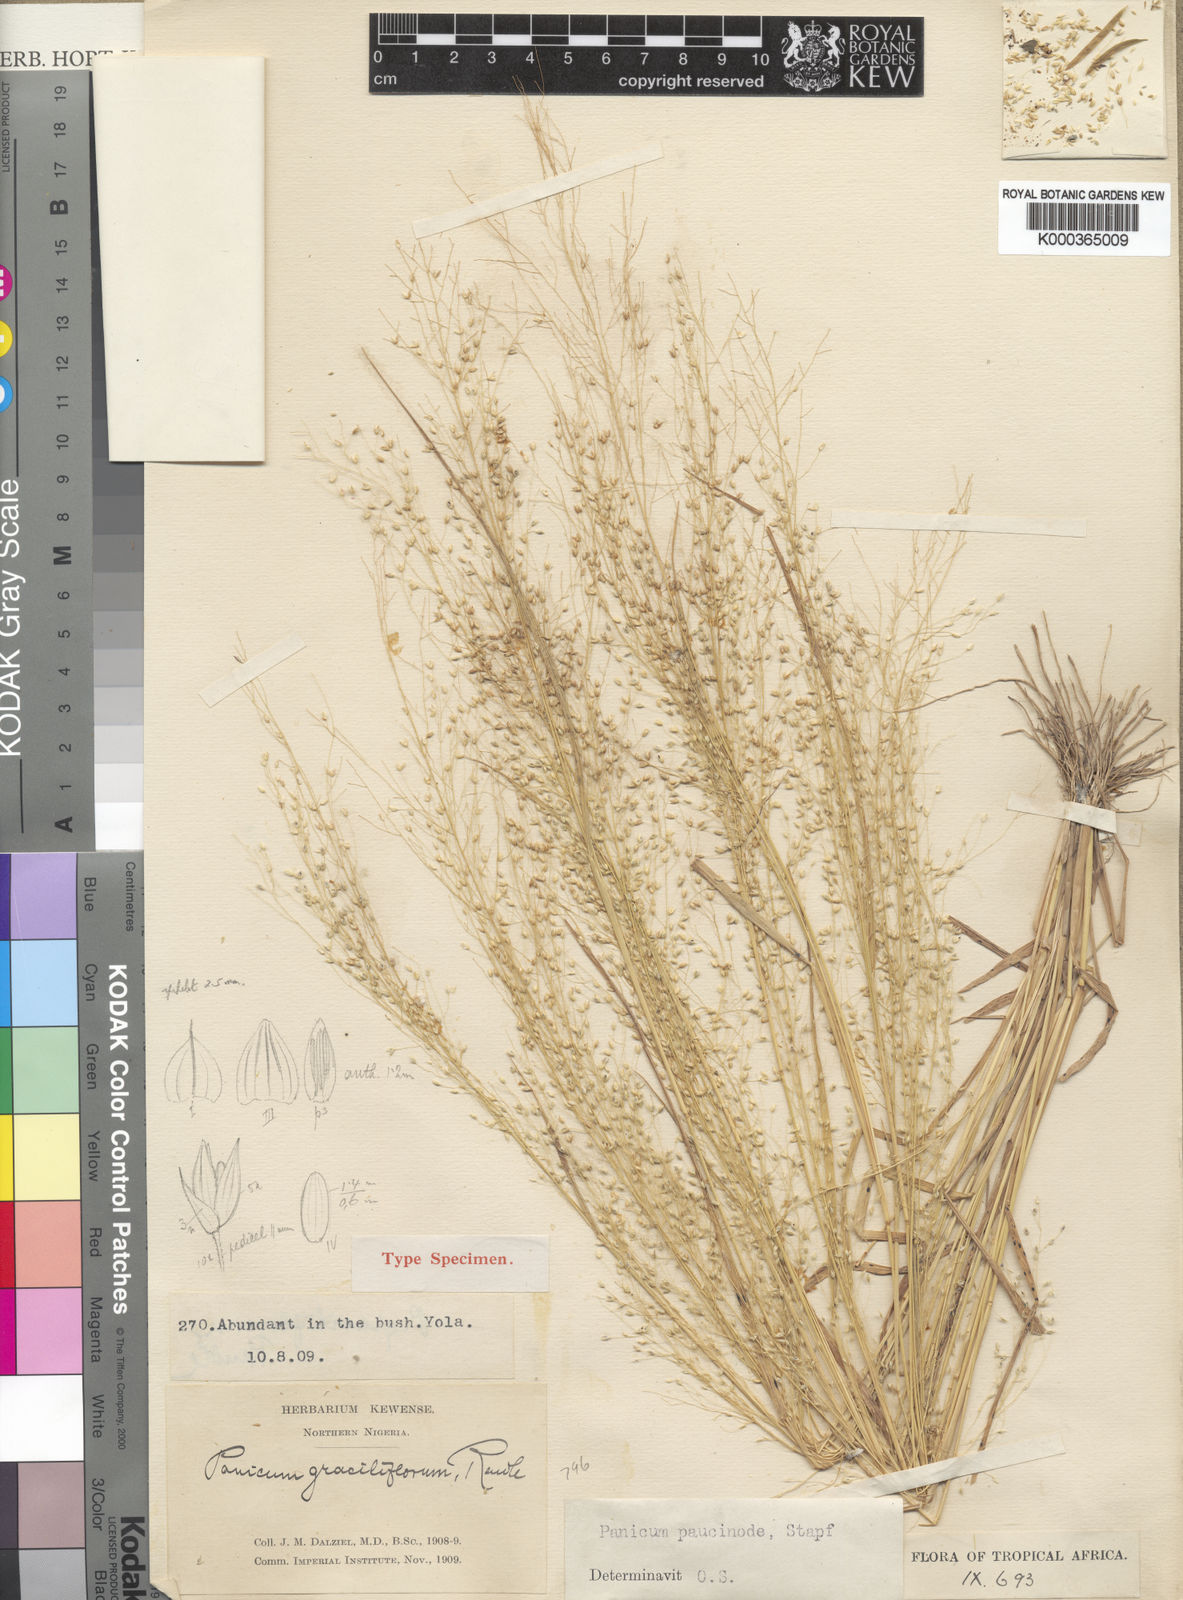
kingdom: Plantae
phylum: Tracheophyta
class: Liliopsida
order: Poales
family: Poaceae
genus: Panicum
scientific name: Panicum paucinode
